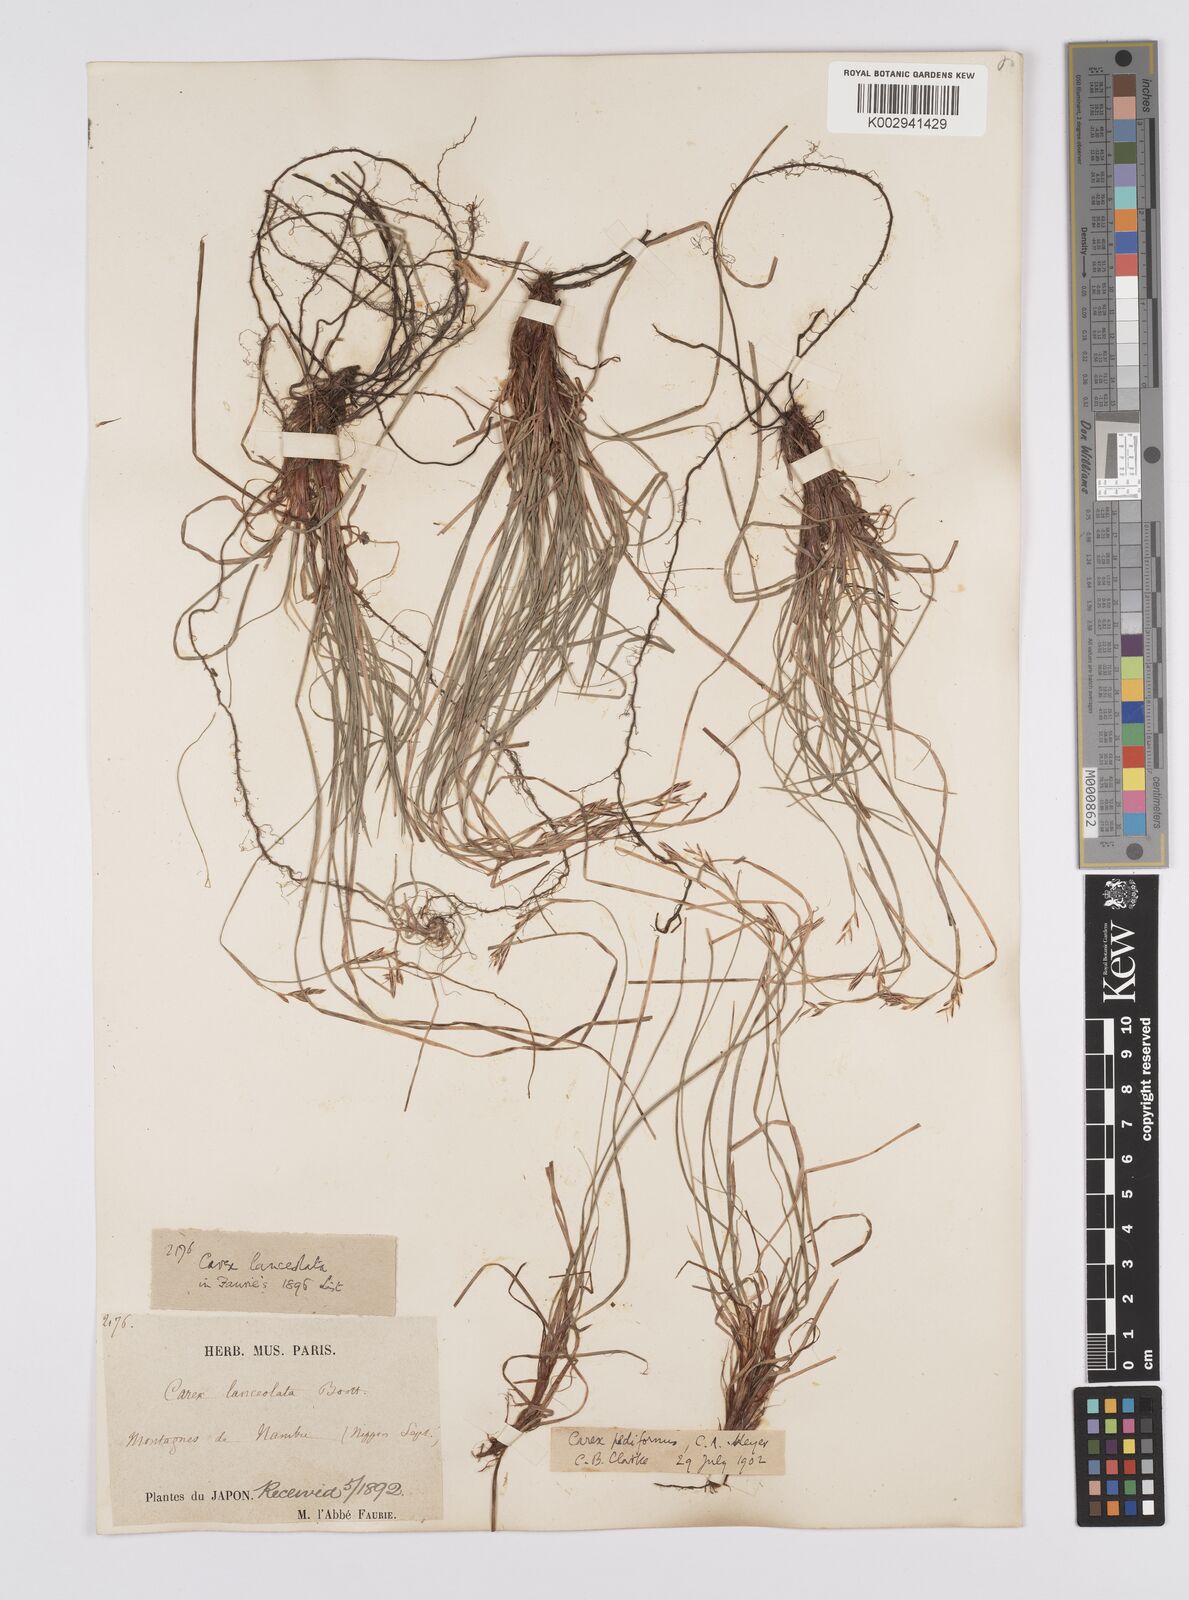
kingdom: Plantae
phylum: Tracheophyta
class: Liliopsida
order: Poales
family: Cyperaceae
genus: Carex
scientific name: Carex lanceolata
